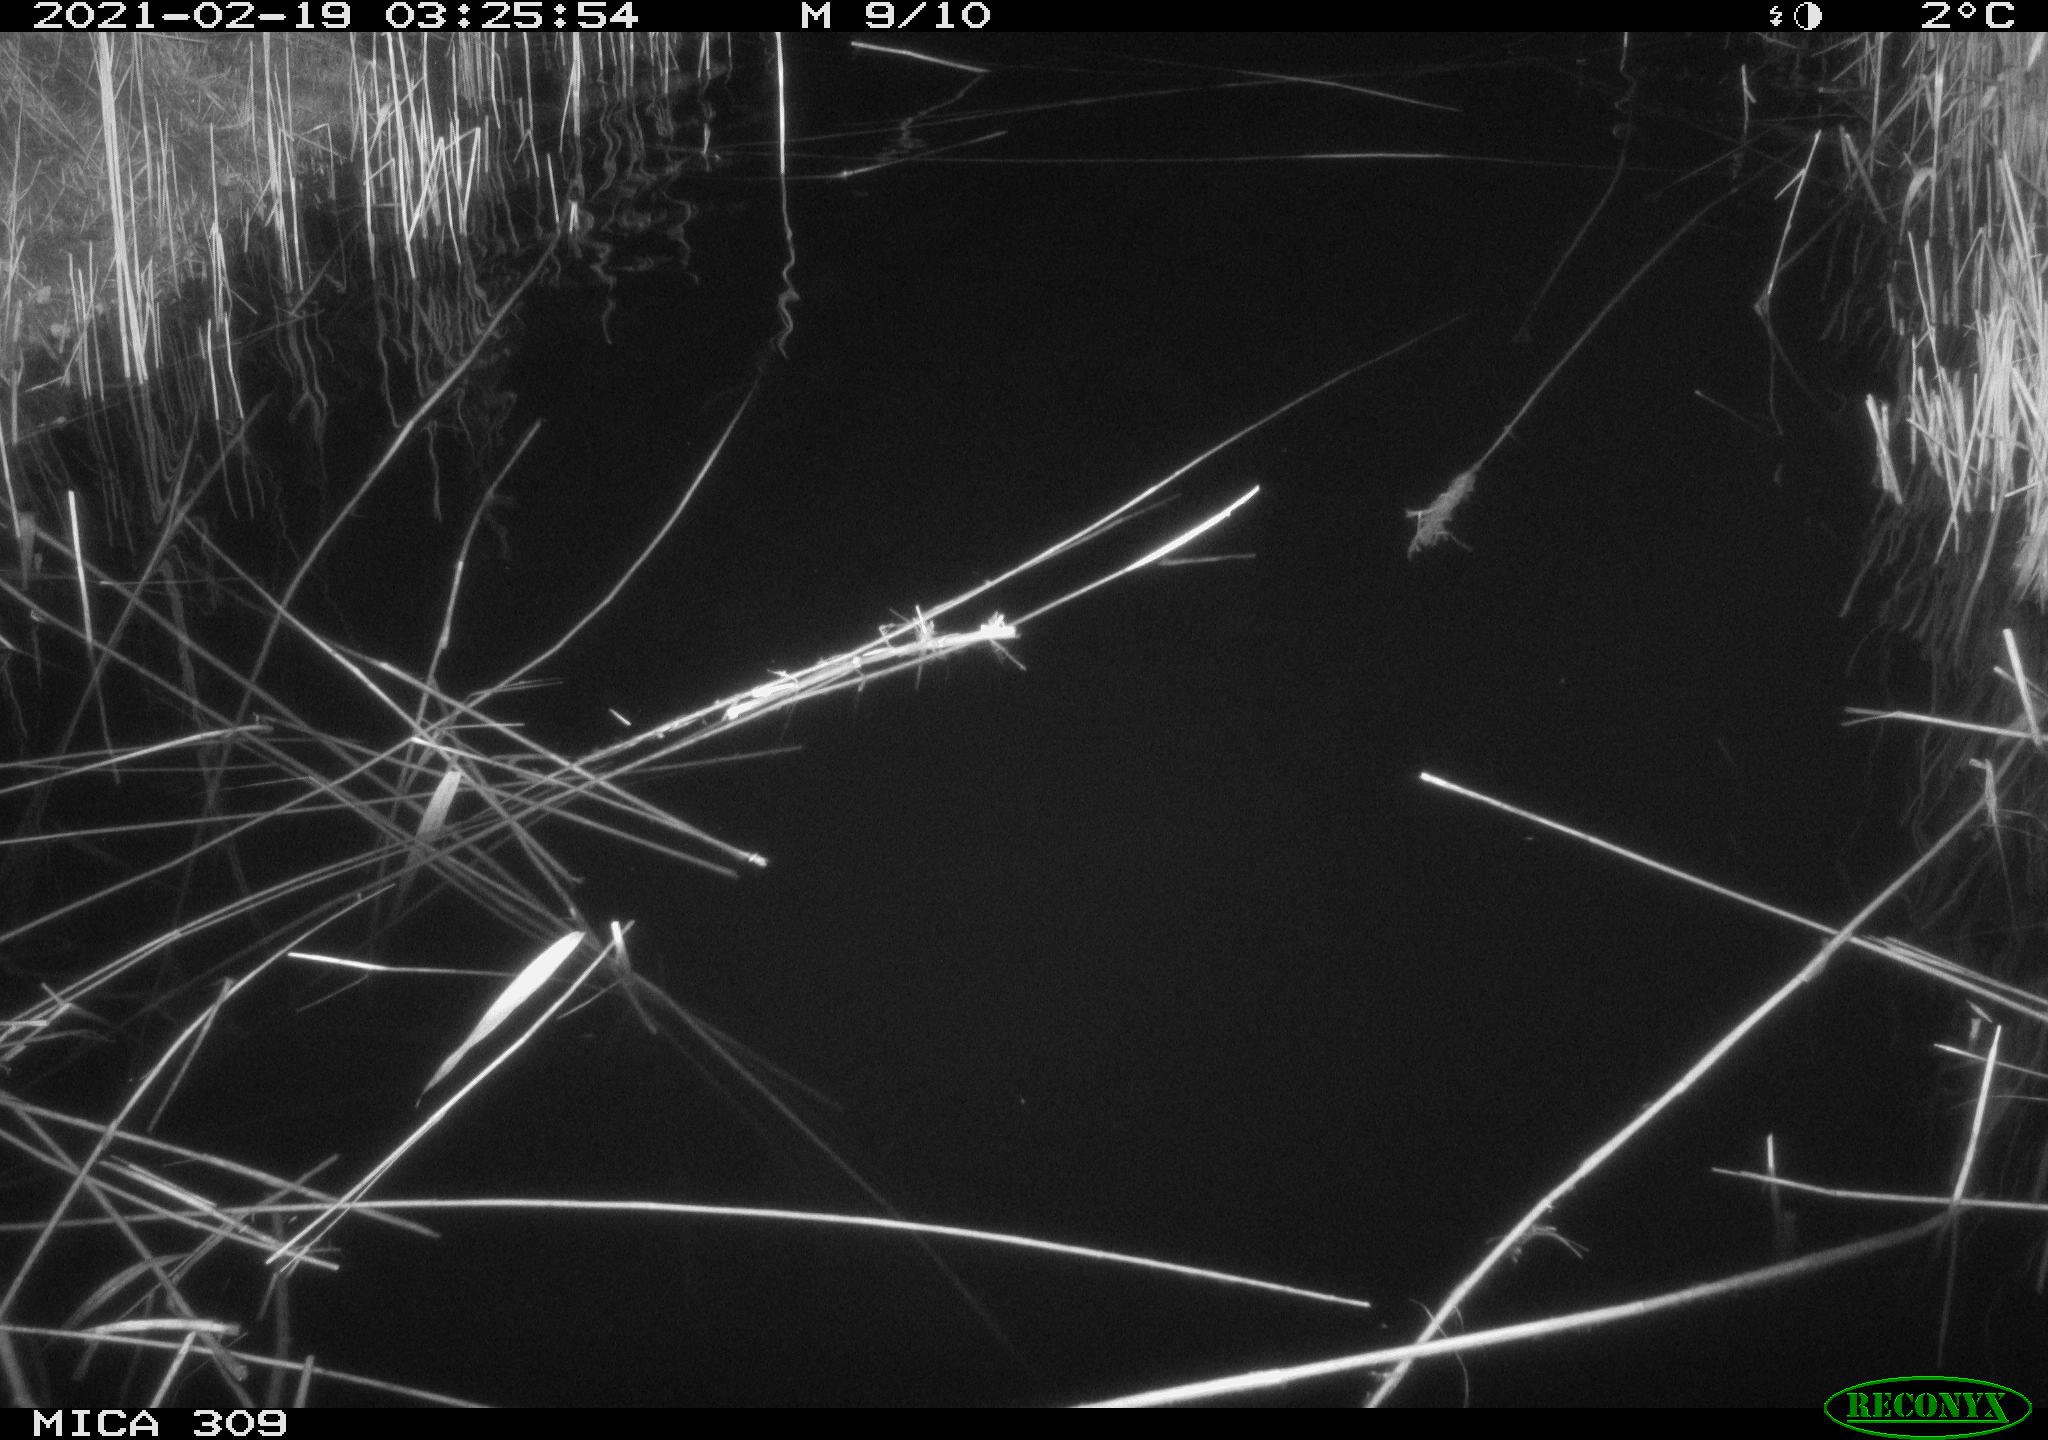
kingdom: Animalia
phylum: Chordata
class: Mammalia
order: Rodentia
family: Cricetidae
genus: Ondatra
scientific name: Ondatra zibethicus
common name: Muskrat
